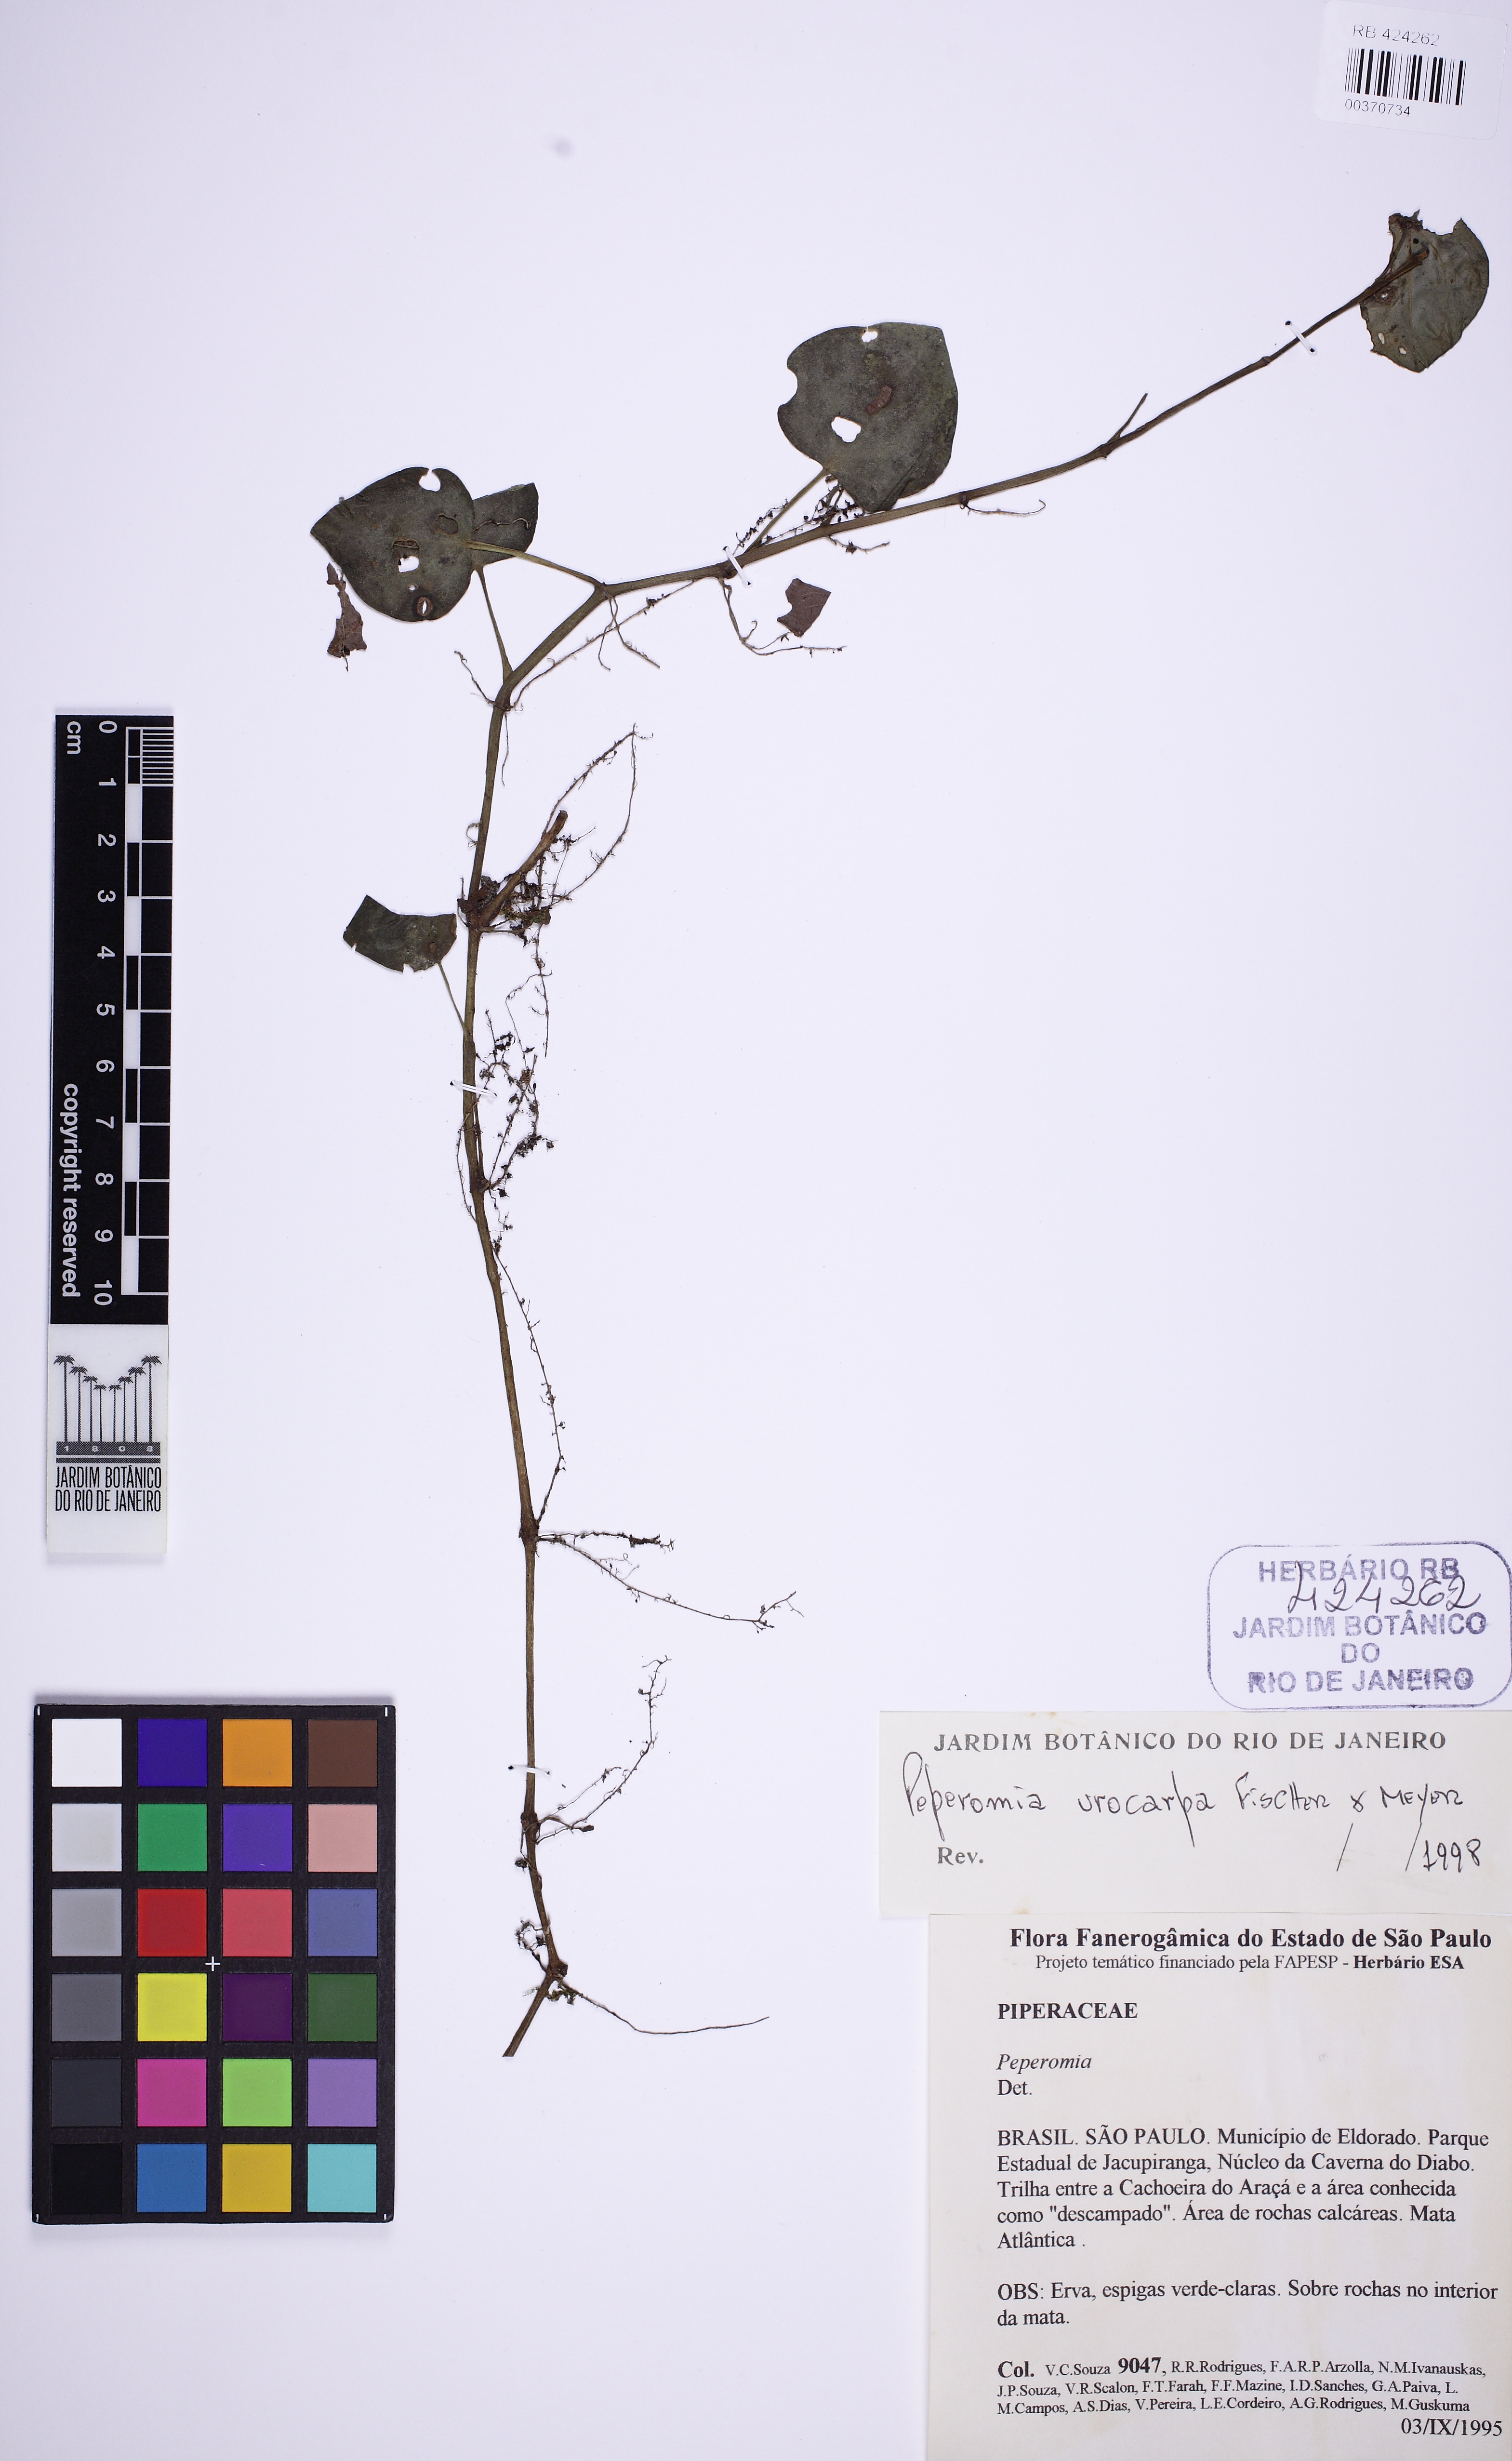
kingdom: Plantae
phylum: Tracheophyta
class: Magnoliopsida
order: Piperales
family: Piperaceae
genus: Peperomia
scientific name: Peperomia urocarpa
